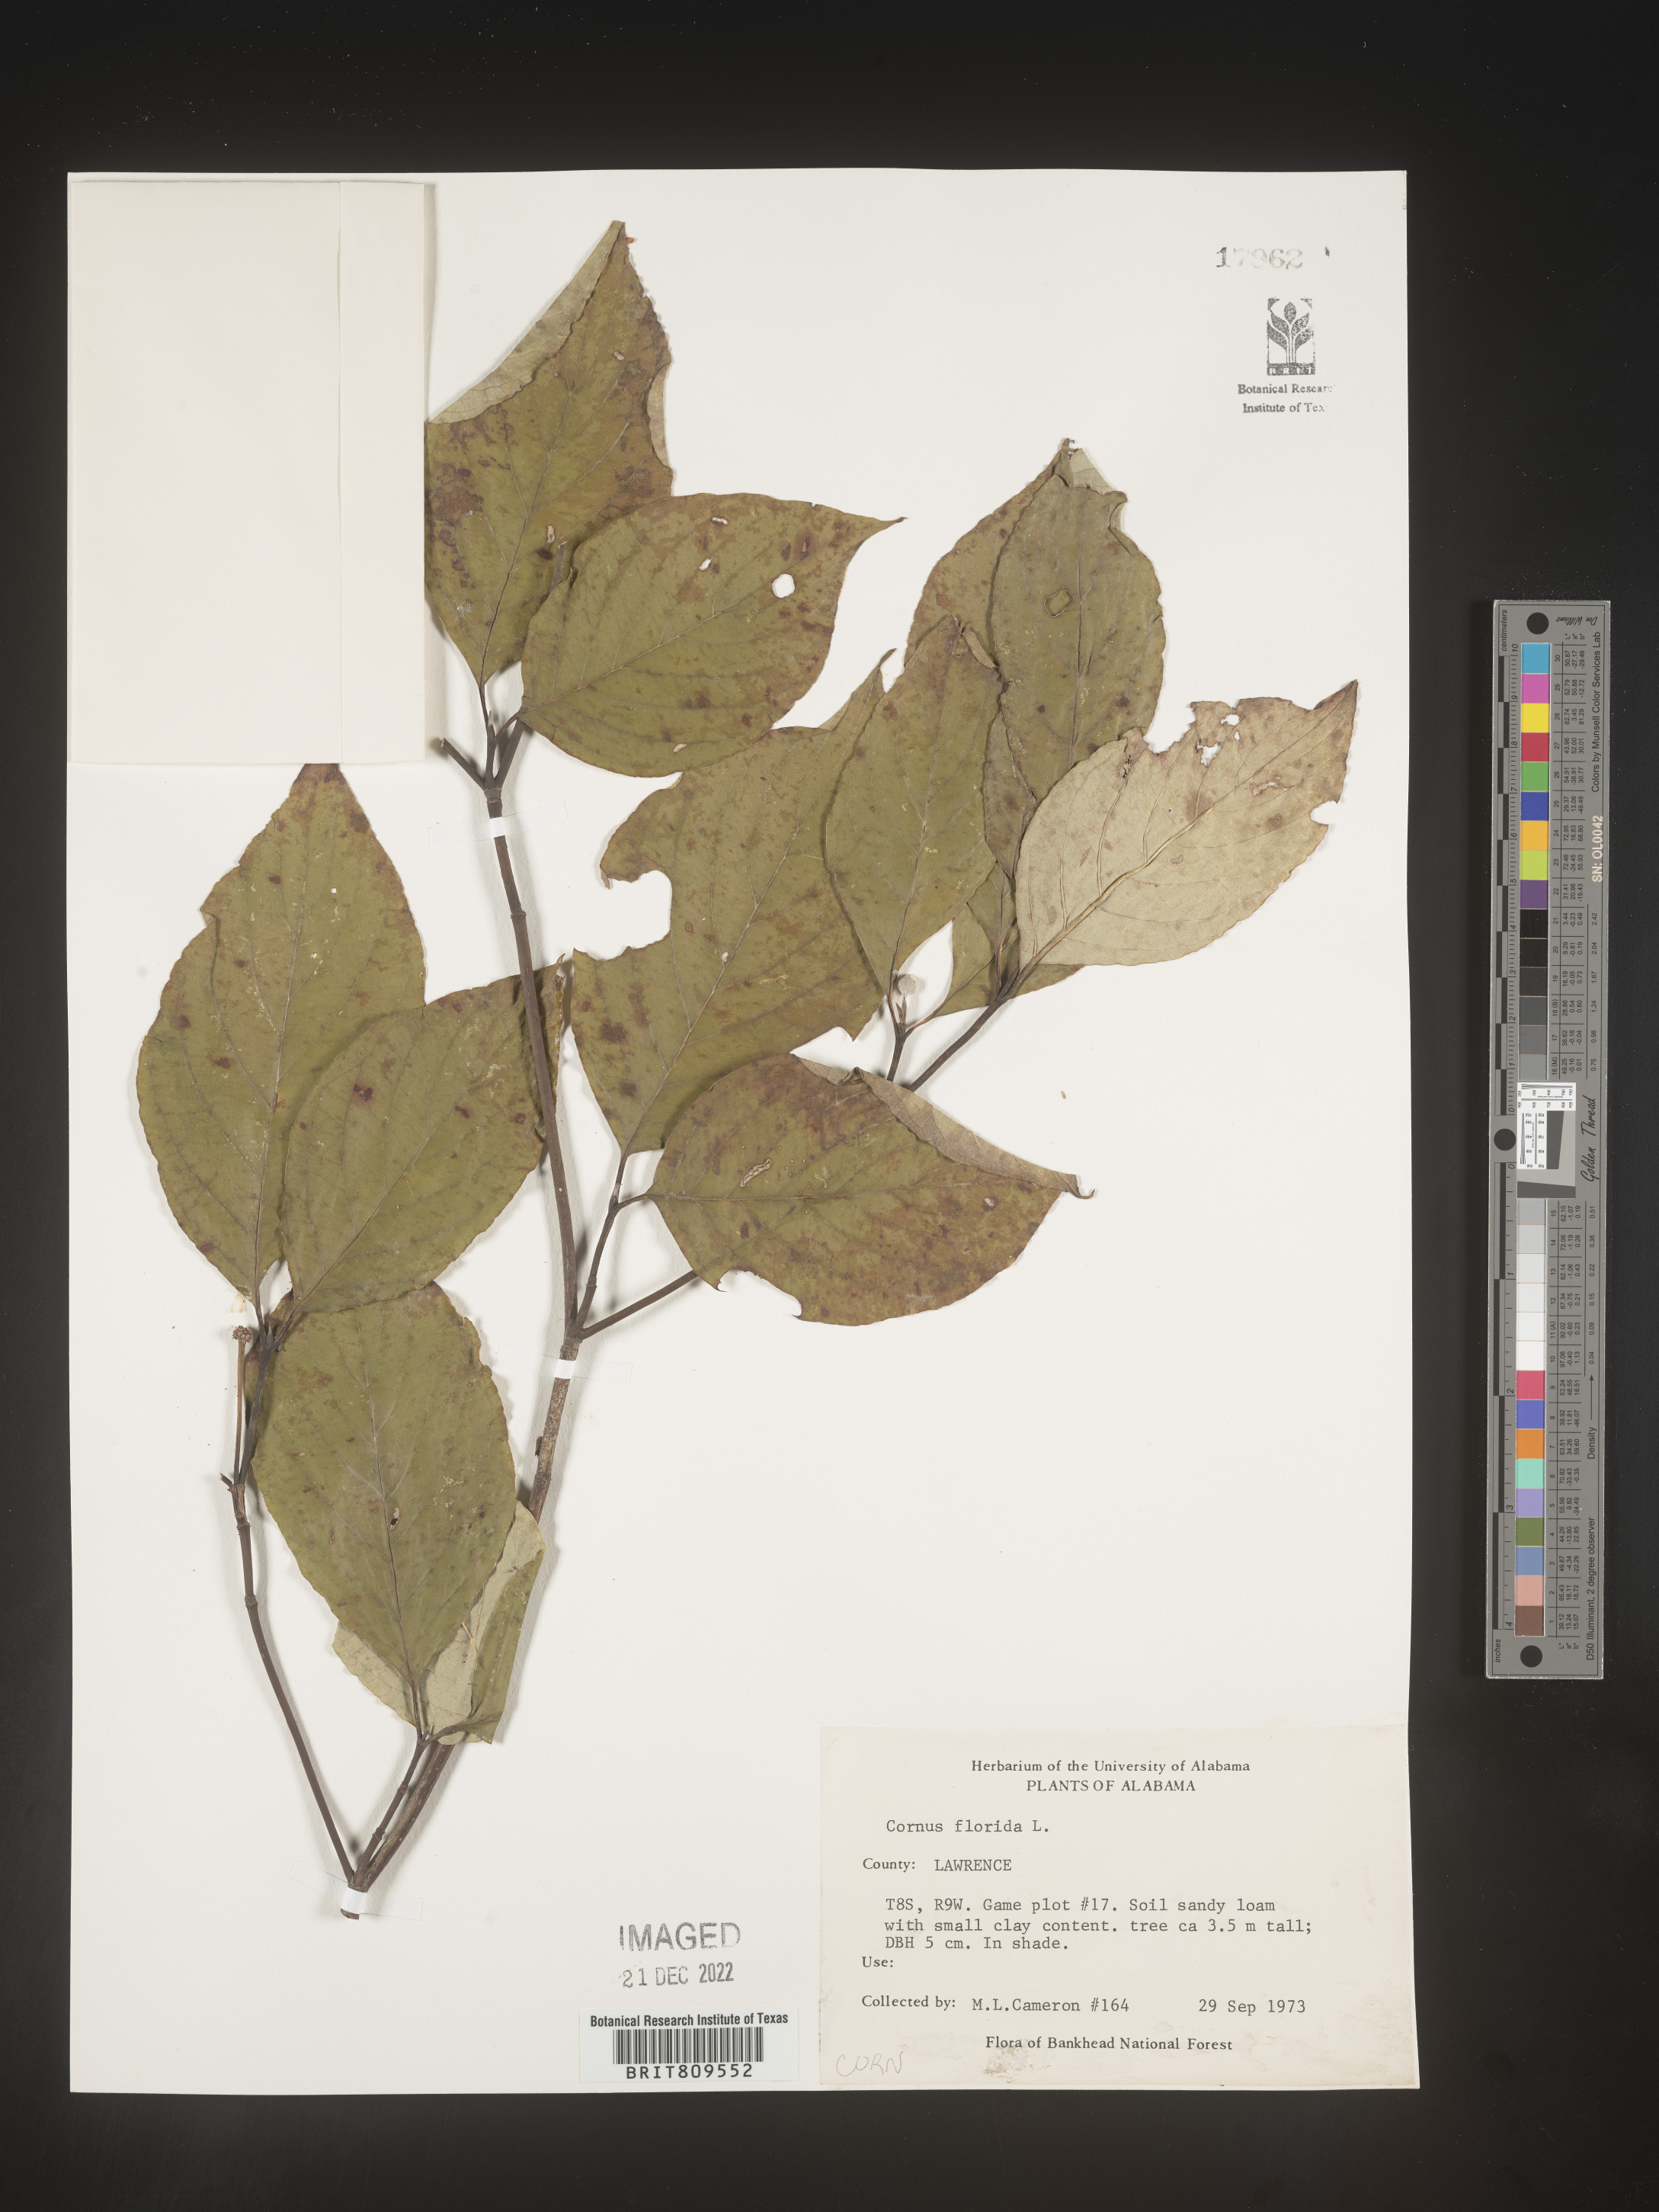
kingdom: Plantae
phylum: Tracheophyta
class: Magnoliopsida
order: Cornales
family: Cornaceae
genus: Cornus
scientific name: Cornus florida
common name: Flowering dogwood
